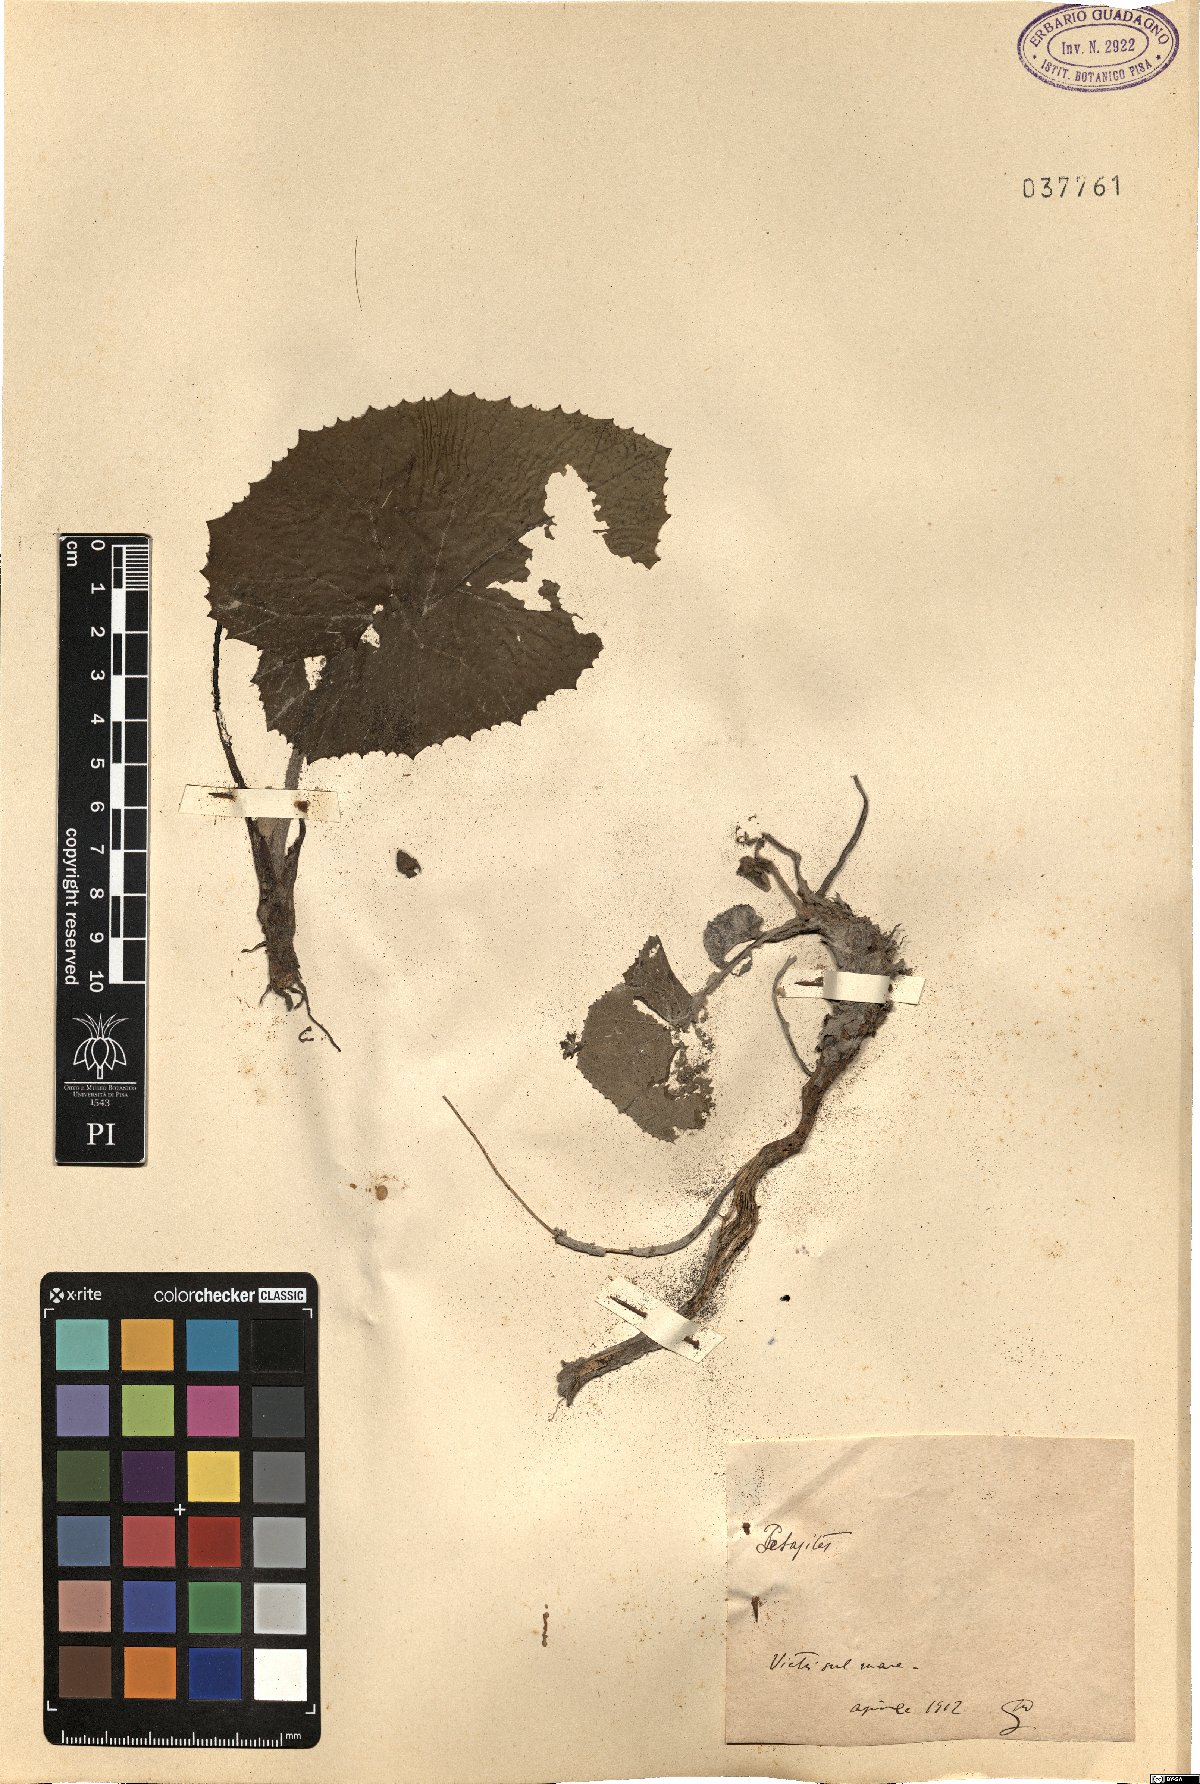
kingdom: Plantae
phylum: Tracheophyta
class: Magnoliopsida
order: Asterales
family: Asteraceae
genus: Petasites
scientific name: Petasites
